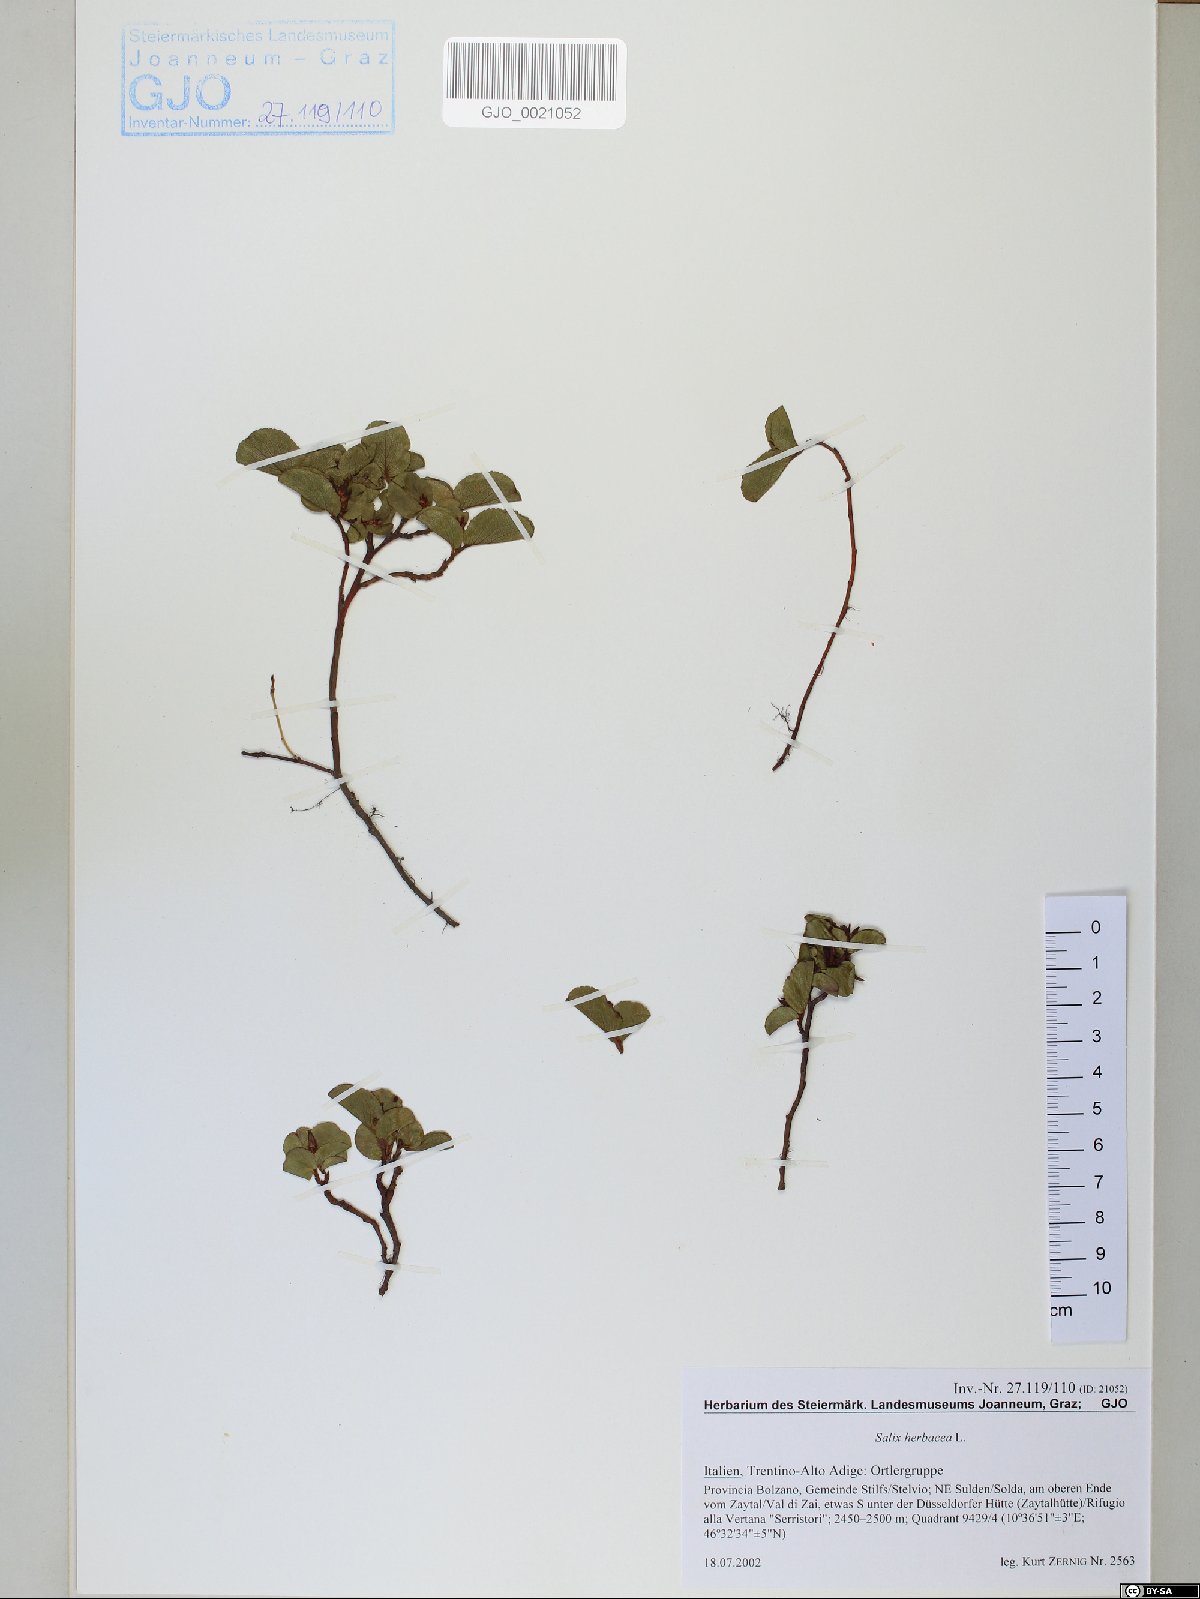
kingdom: Plantae
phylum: Tracheophyta
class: Magnoliopsida
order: Malpighiales
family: Salicaceae
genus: Salix
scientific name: Salix herbacea
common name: Dwarf willow
